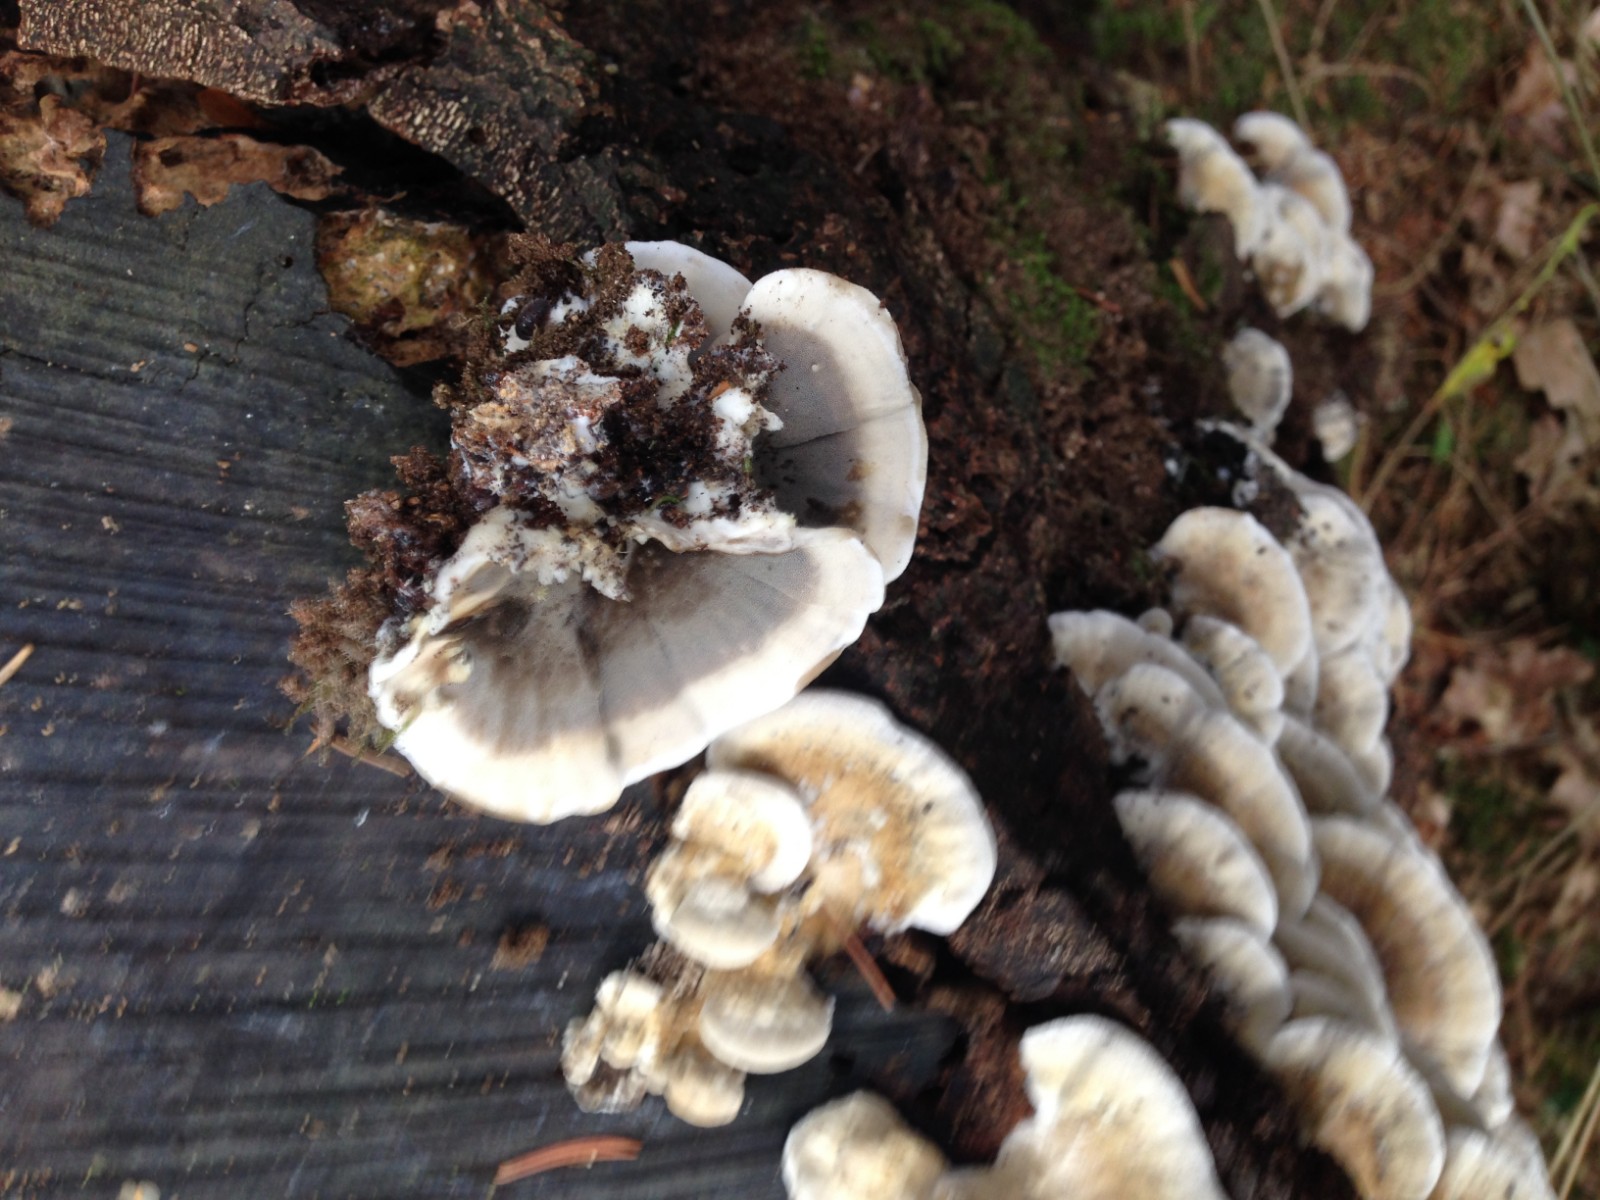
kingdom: Fungi
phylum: Basidiomycota
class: Agaricomycetes
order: Polyporales
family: Phanerochaetaceae
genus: Bjerkandera
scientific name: Bjerkandera adusta
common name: sveden sodporesvamp
